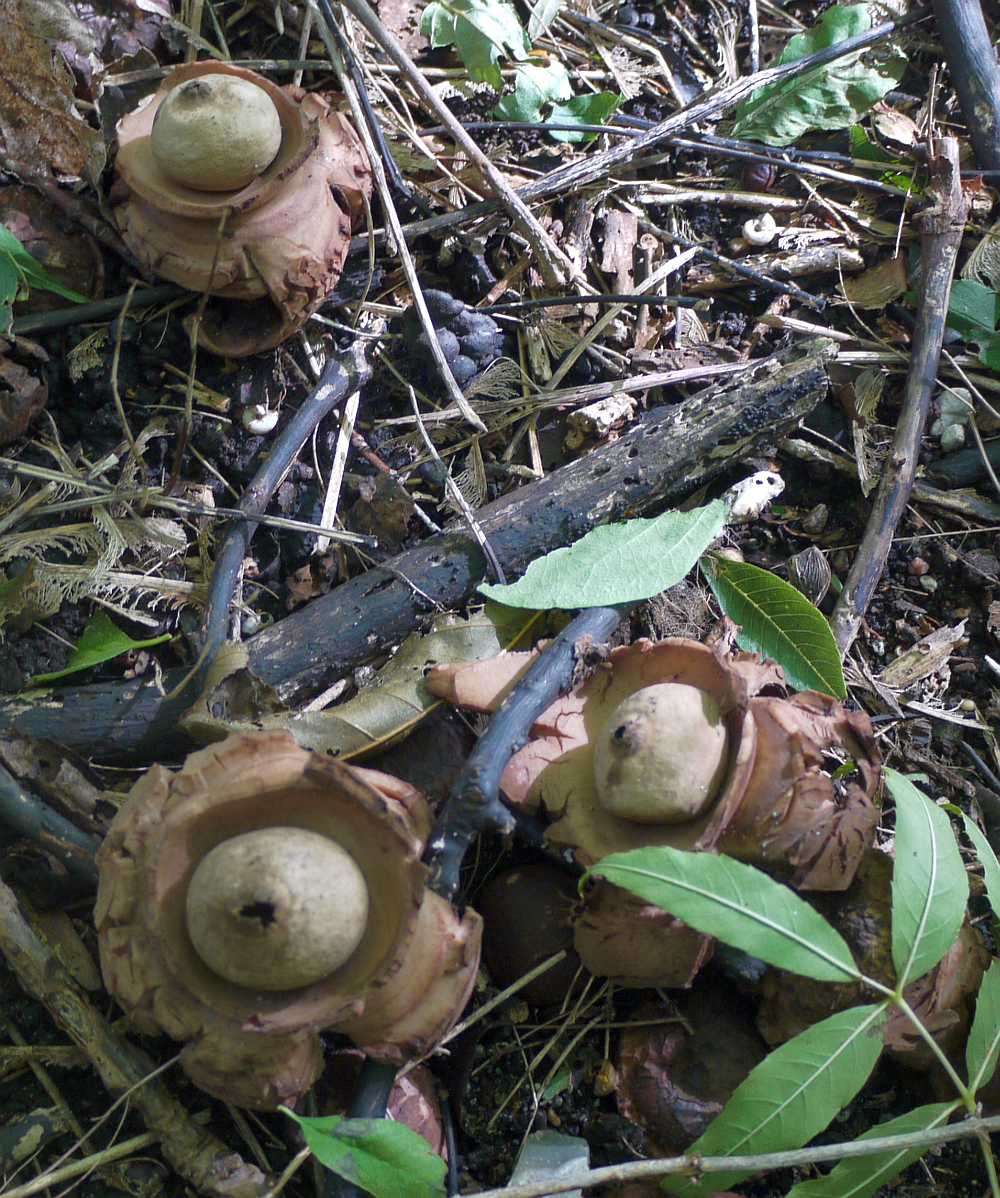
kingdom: Fungi
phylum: Basidiomycota
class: Agaricomycetes
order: Geastrales
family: Geastraceae
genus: Geastrum
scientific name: Geastrum michelianum
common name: kødet stjernebold
